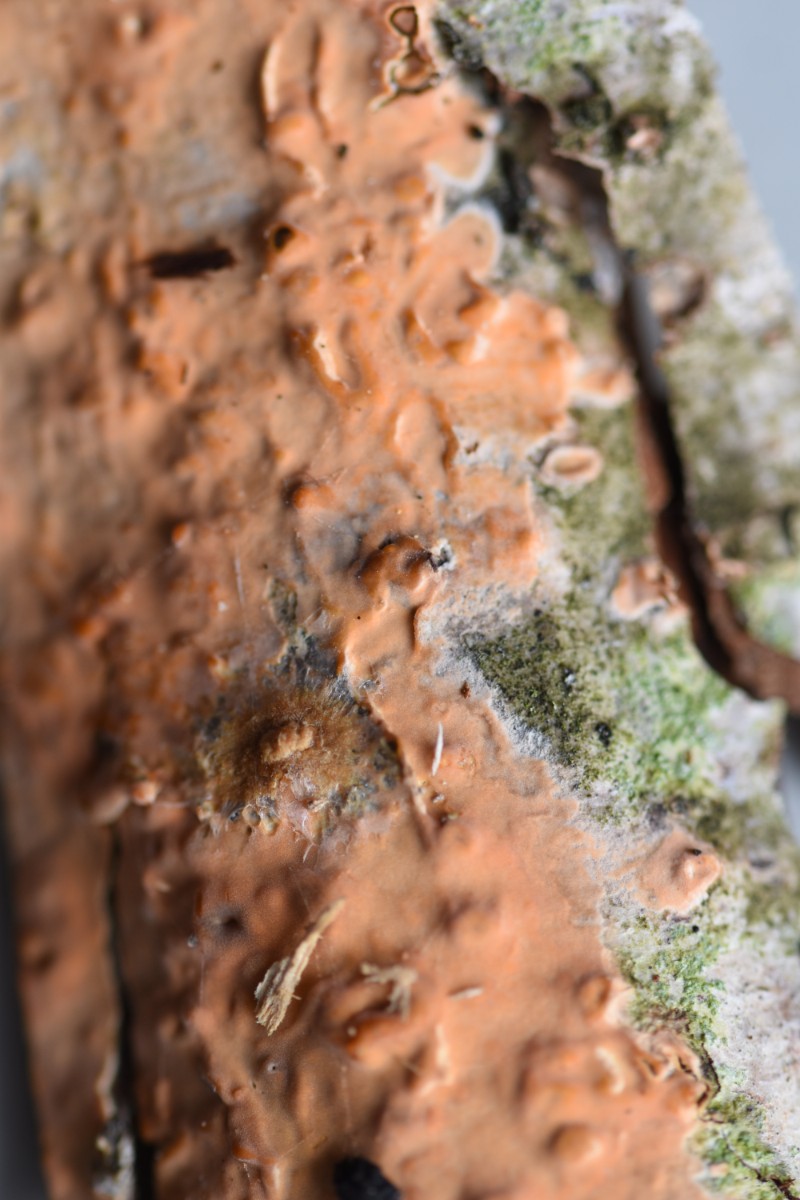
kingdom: Fungi
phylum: Basidiomycota
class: Agaricomycetes
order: Russulales
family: Peniophoraceae
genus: Peniophora
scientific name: Peniophora incarnata
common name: laksefarvet voksskind
